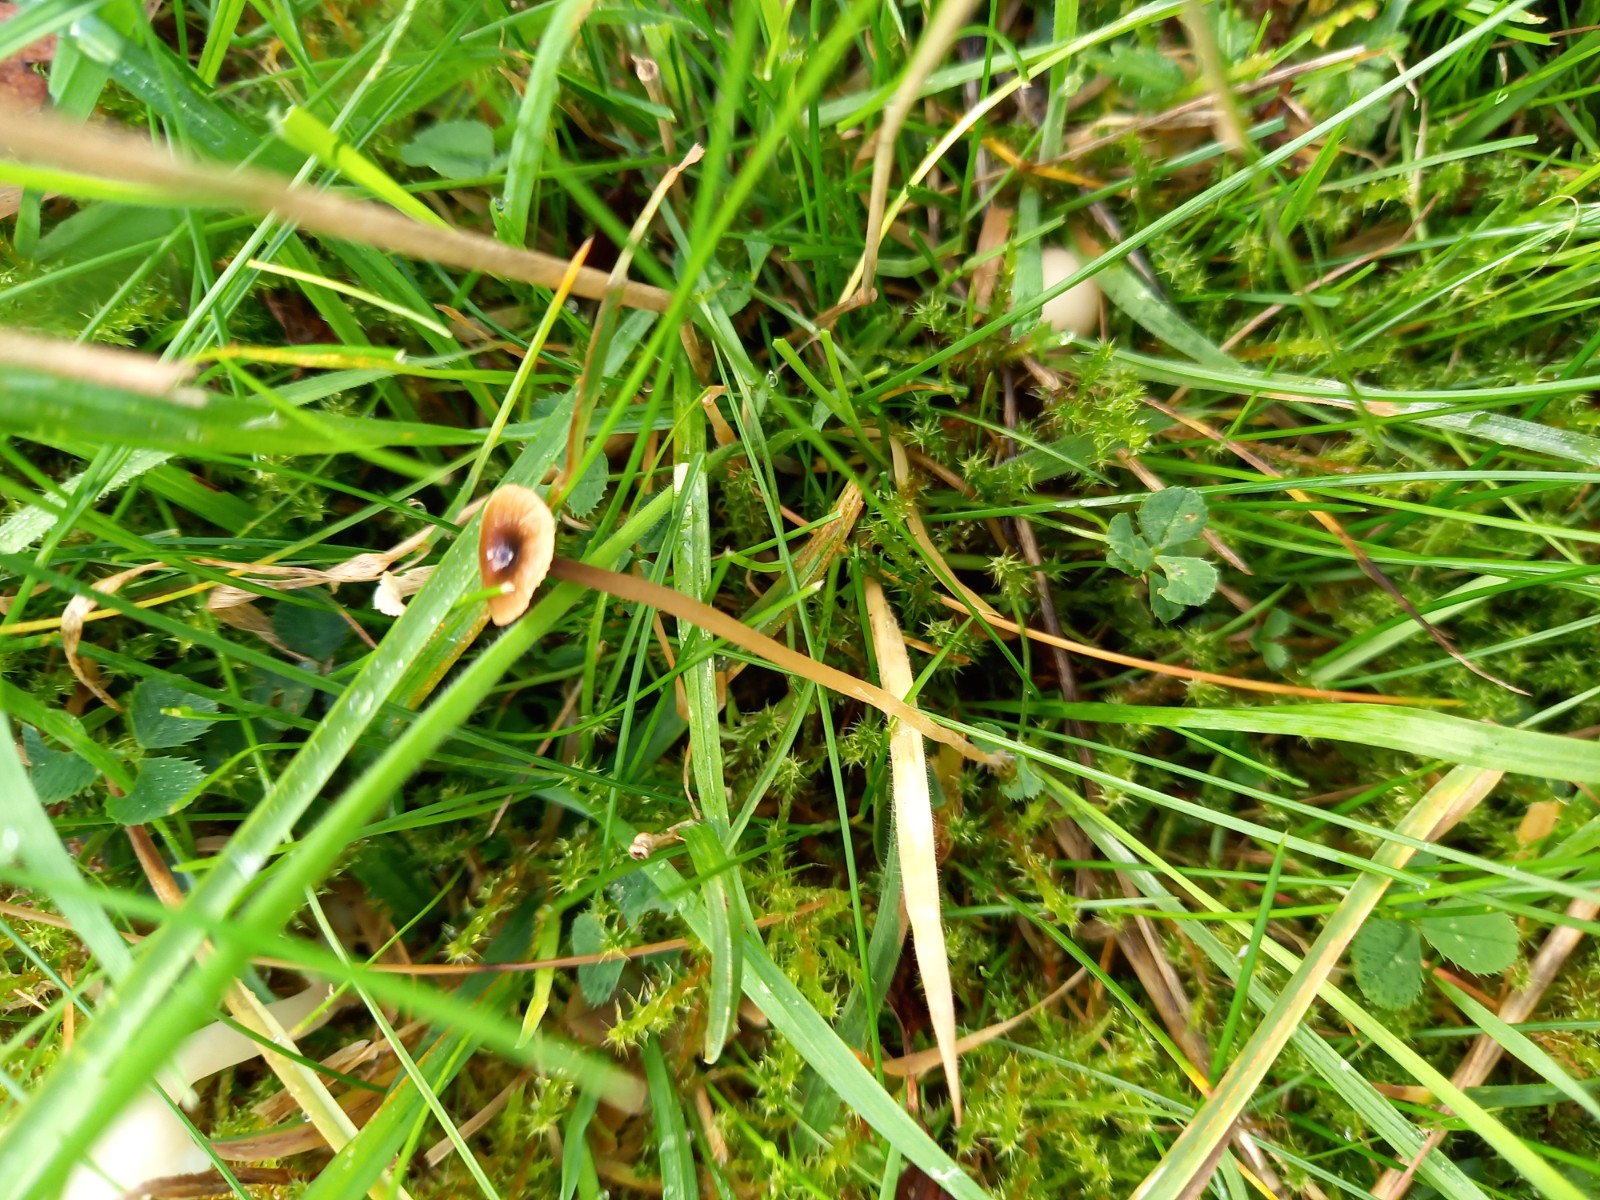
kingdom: Fungi
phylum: Basidiomycota
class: Agaricomycetes
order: Hymenochaetales
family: Rickenellaceae
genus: Rickenella
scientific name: Rickenella swartzii
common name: finstokket mosnavlehat
